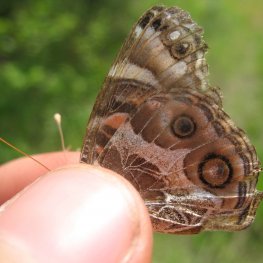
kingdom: Animalia
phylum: Arthropoda
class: Insecta
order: Lepidoptera
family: Nymphalidae
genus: Vanessa
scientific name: Vanessa virginiensis
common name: American Lady
